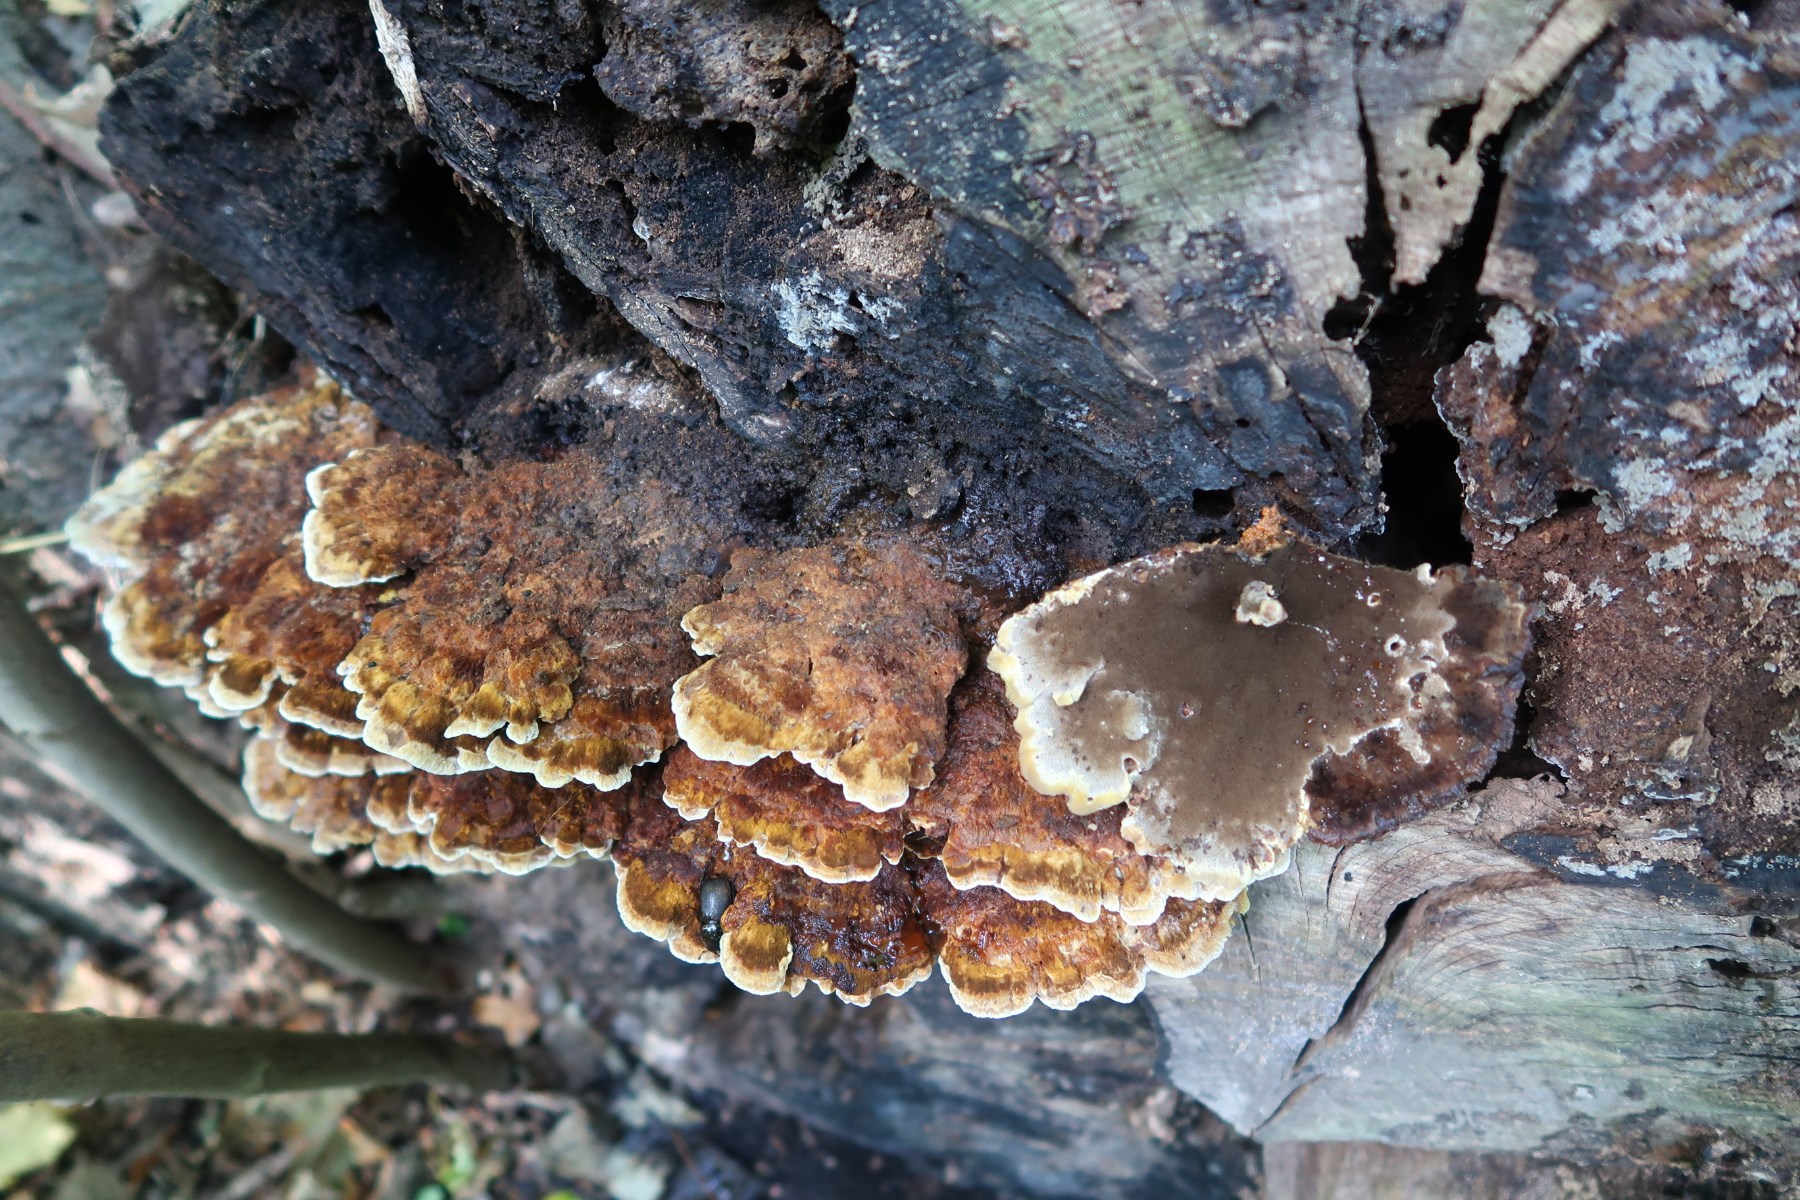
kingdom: Fungi
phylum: Basidiomycota
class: Agaricomycetes
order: Hymenochaetales
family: Hymenochaetaceae
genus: Inonotus
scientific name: Inonotus cuticularis
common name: kroghåret spejlporesvamp
